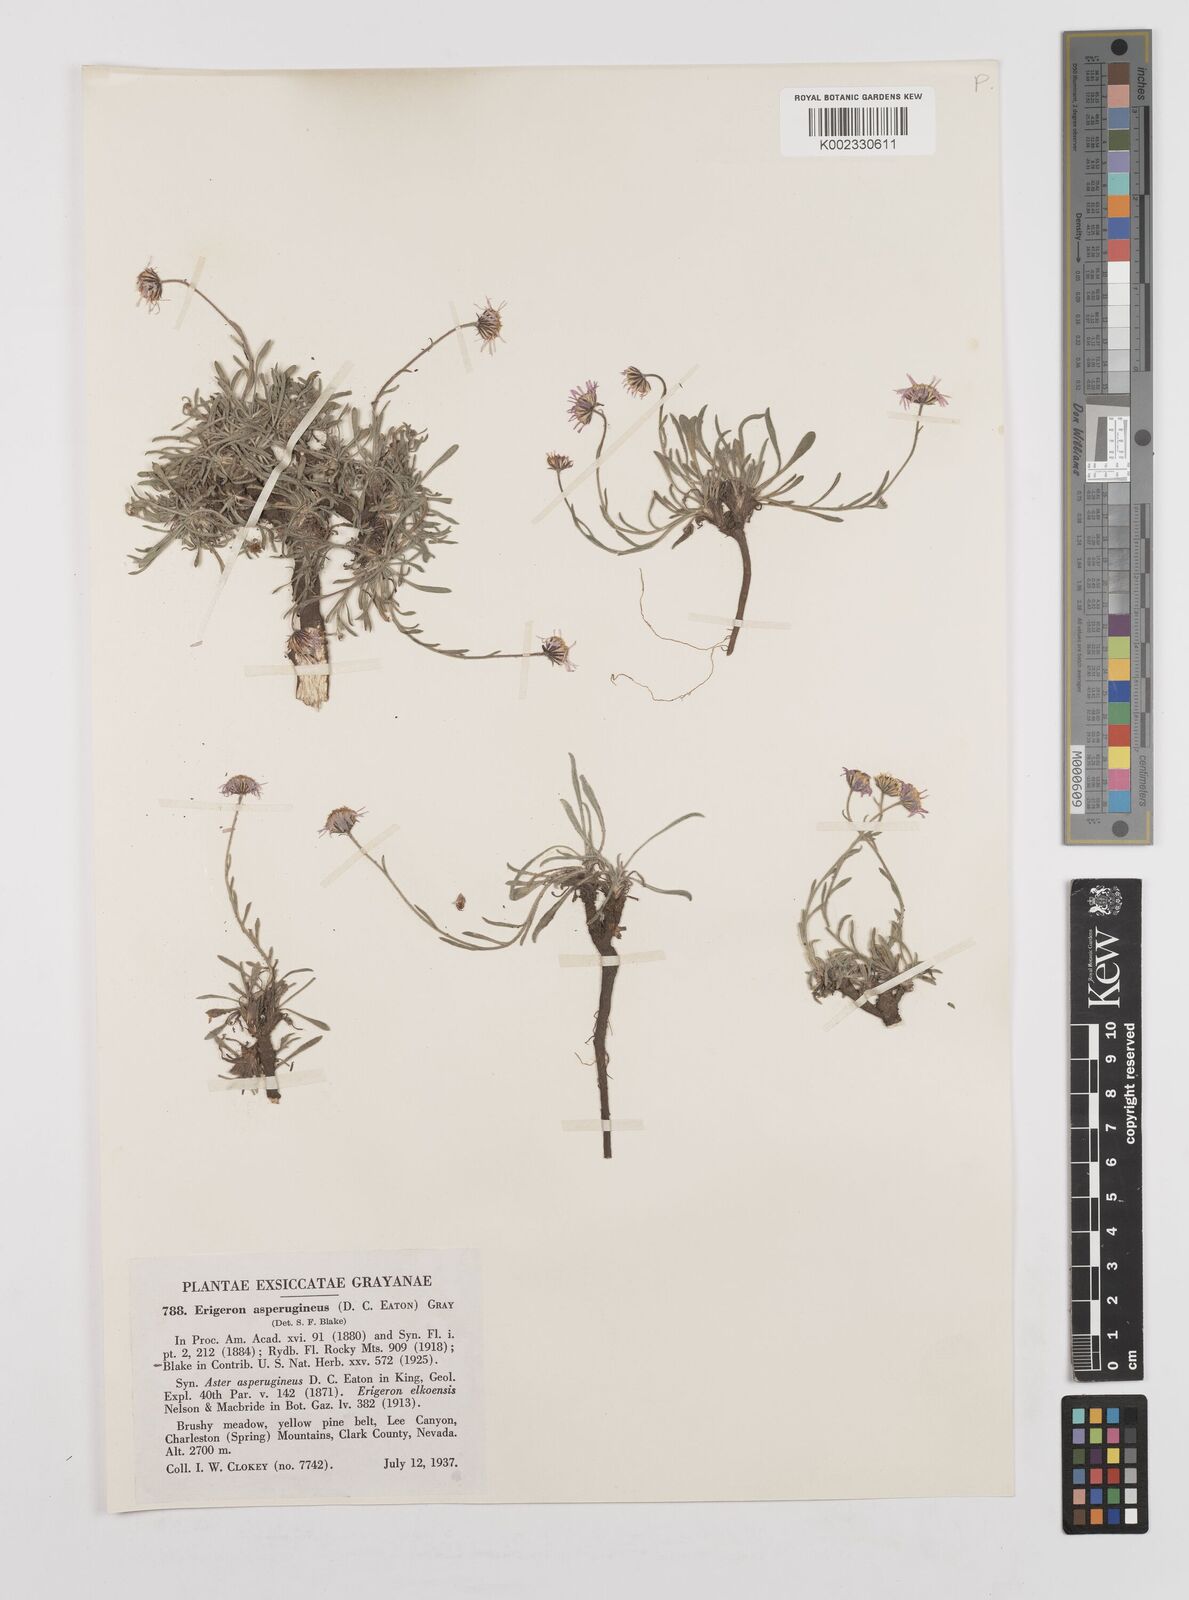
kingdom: Plantae
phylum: Tracheophyta
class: Magnoliopsida
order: Asterales
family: Asteraceae
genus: Erigeron
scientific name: Erigeron asperugineus
